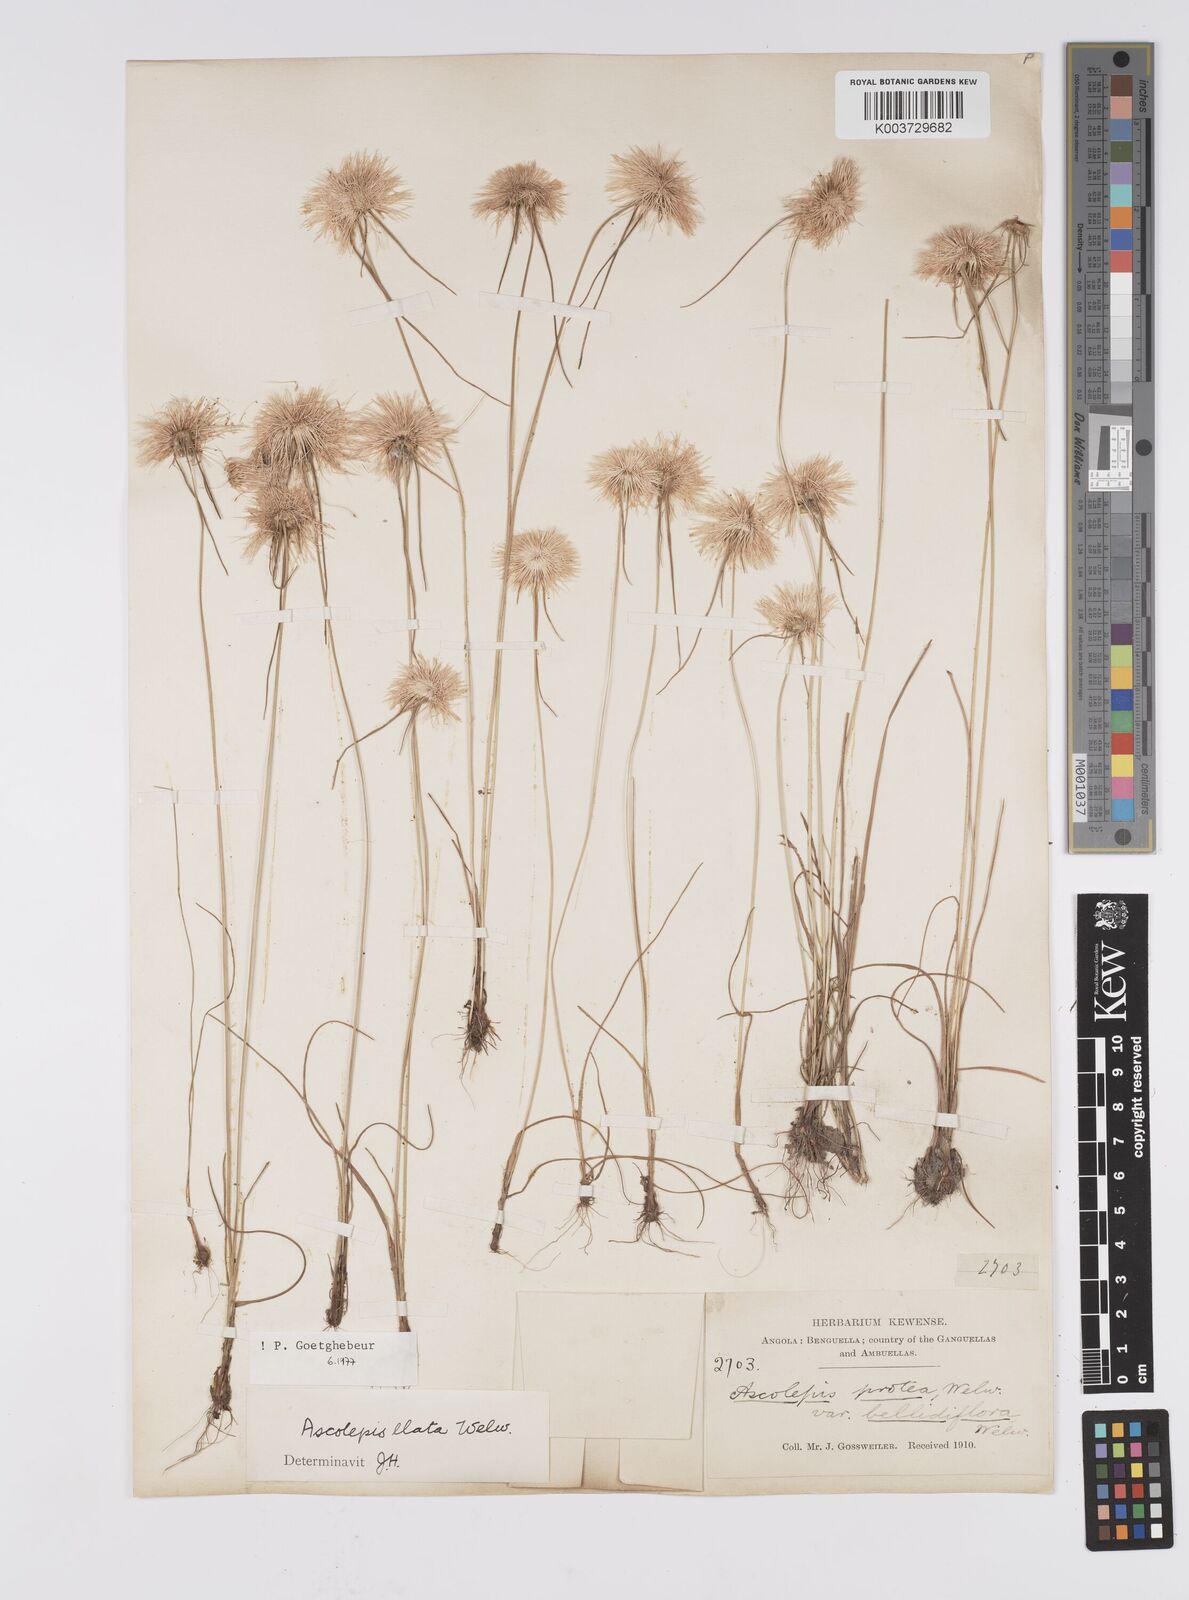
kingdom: Plantae
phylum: Tracheophyta
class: Liliopsida
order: Poales
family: Cyperaceae
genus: Cyperus
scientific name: Cyperus
